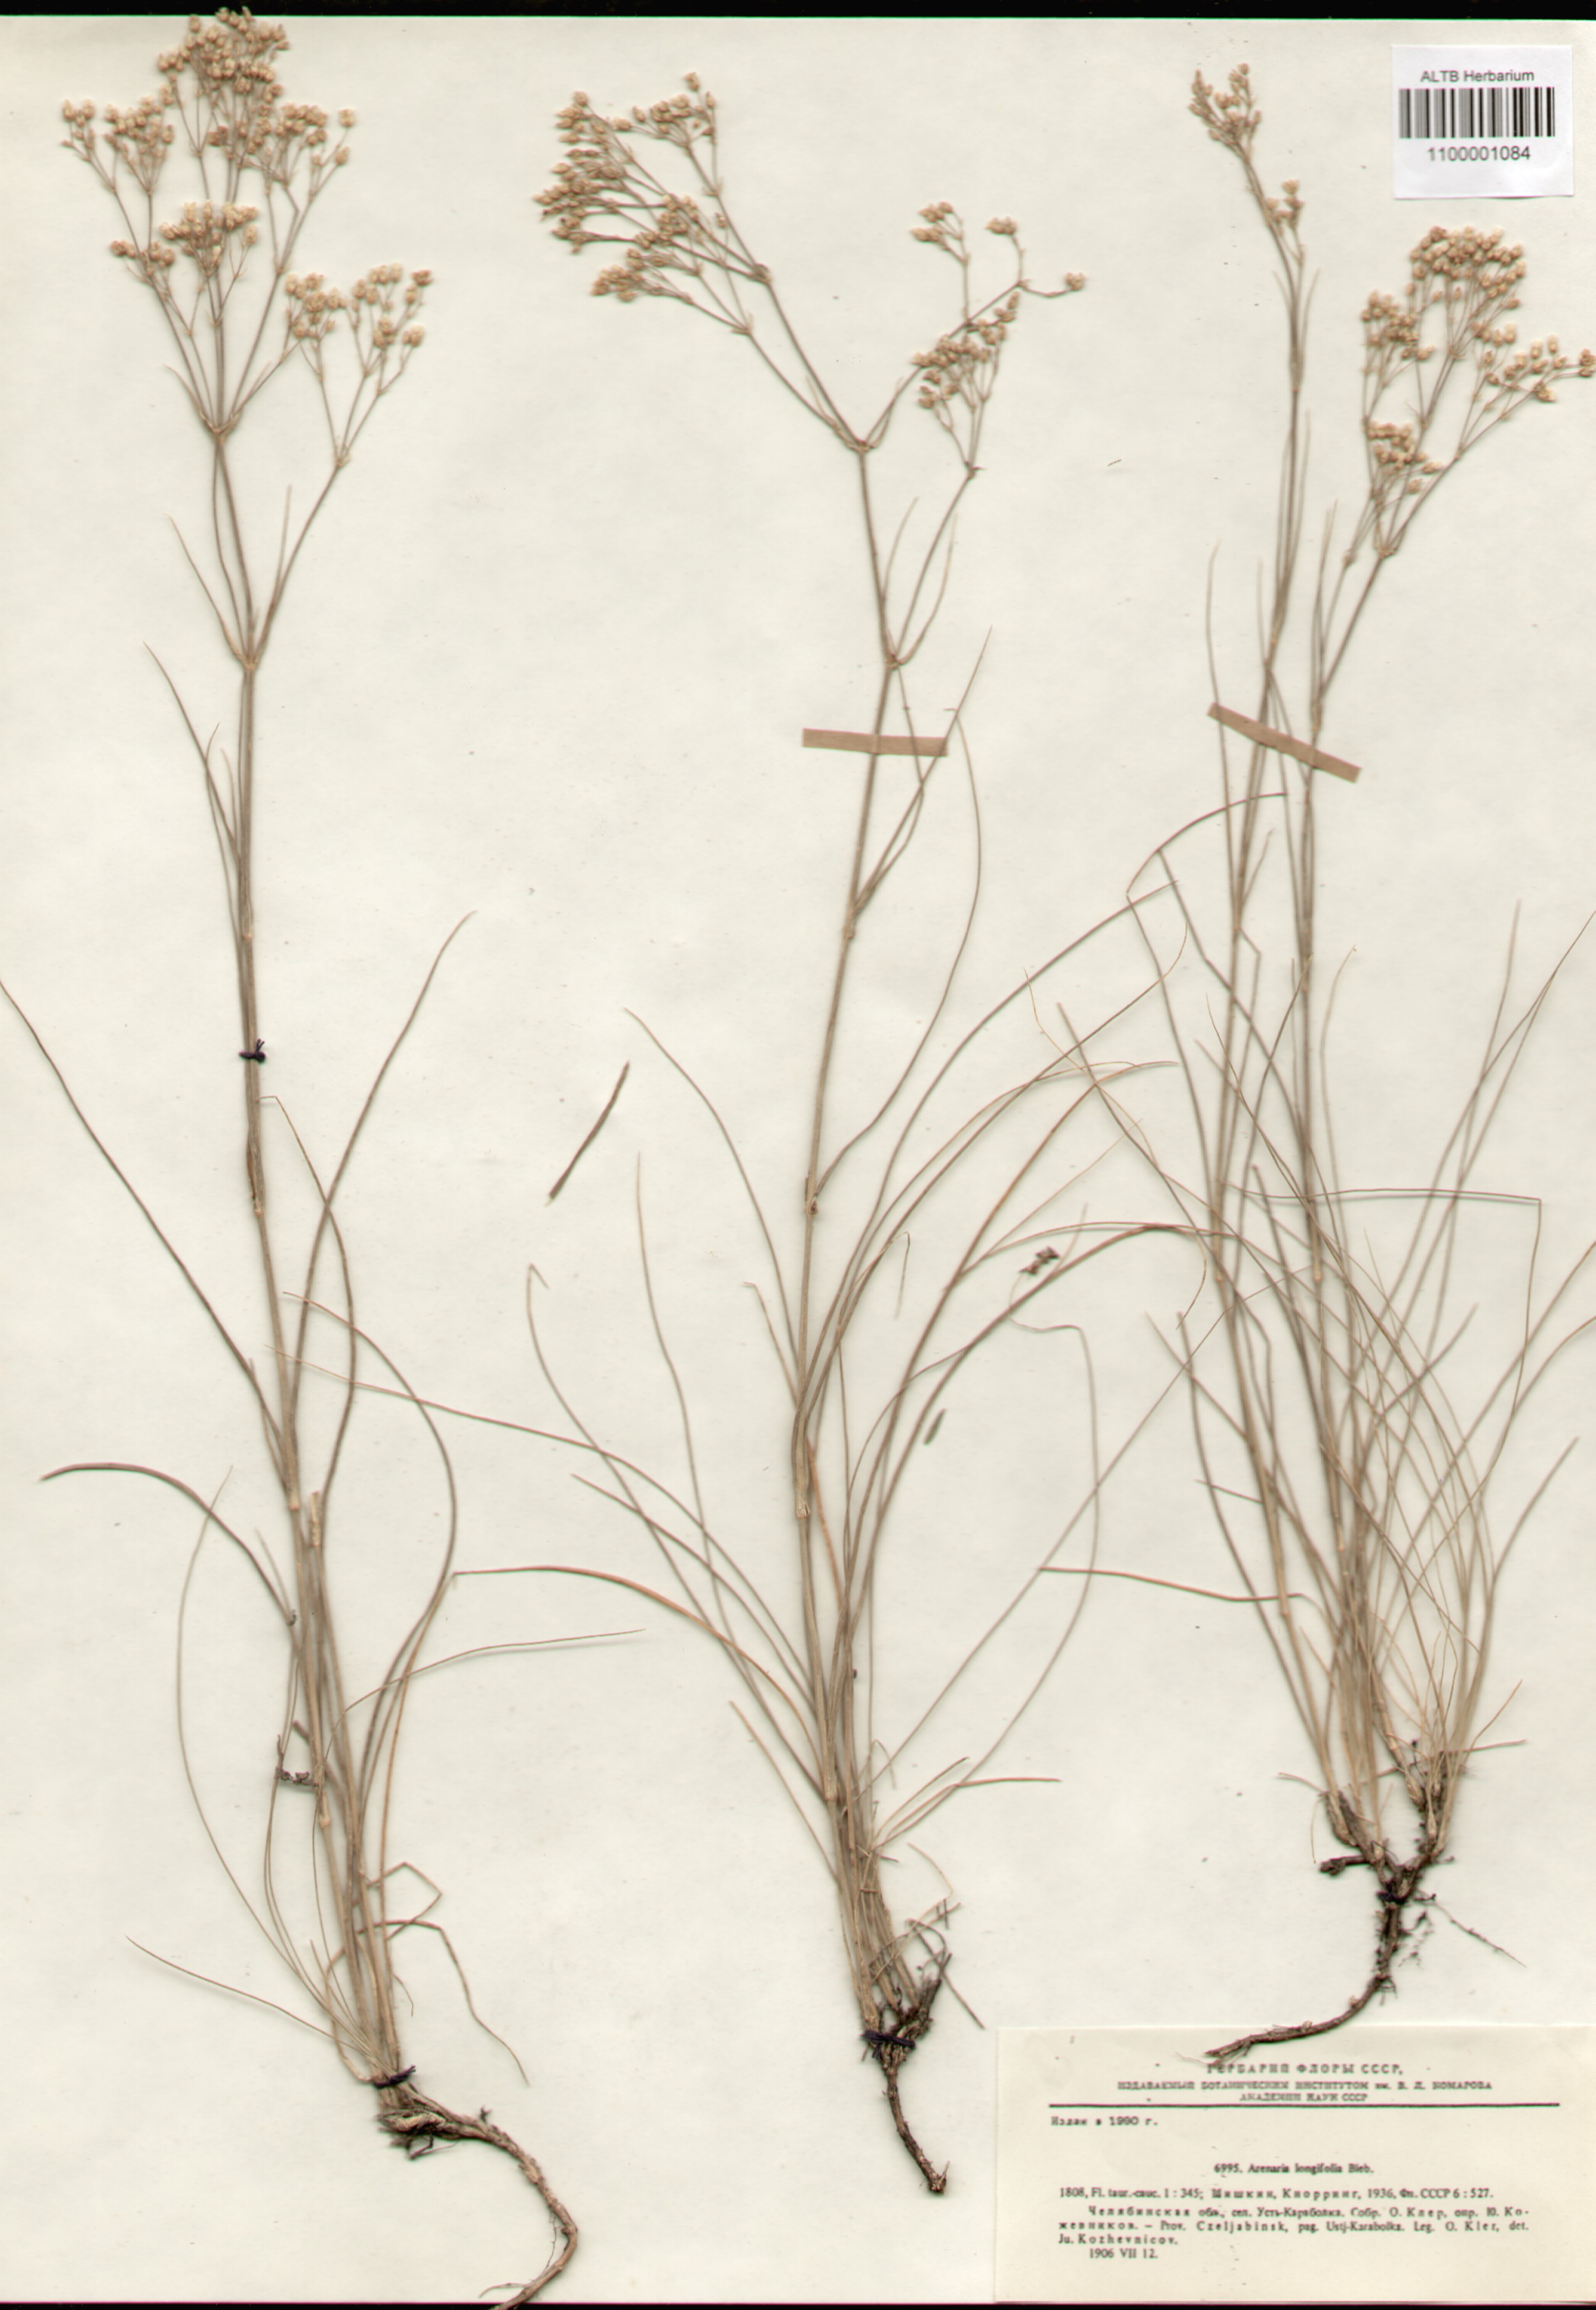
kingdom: Plantae
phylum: Tracheophyta
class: Magnoliopsida
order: Caryophyllales
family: Caryophyllaceae
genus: Eremogone
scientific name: Eremogone longifolia
